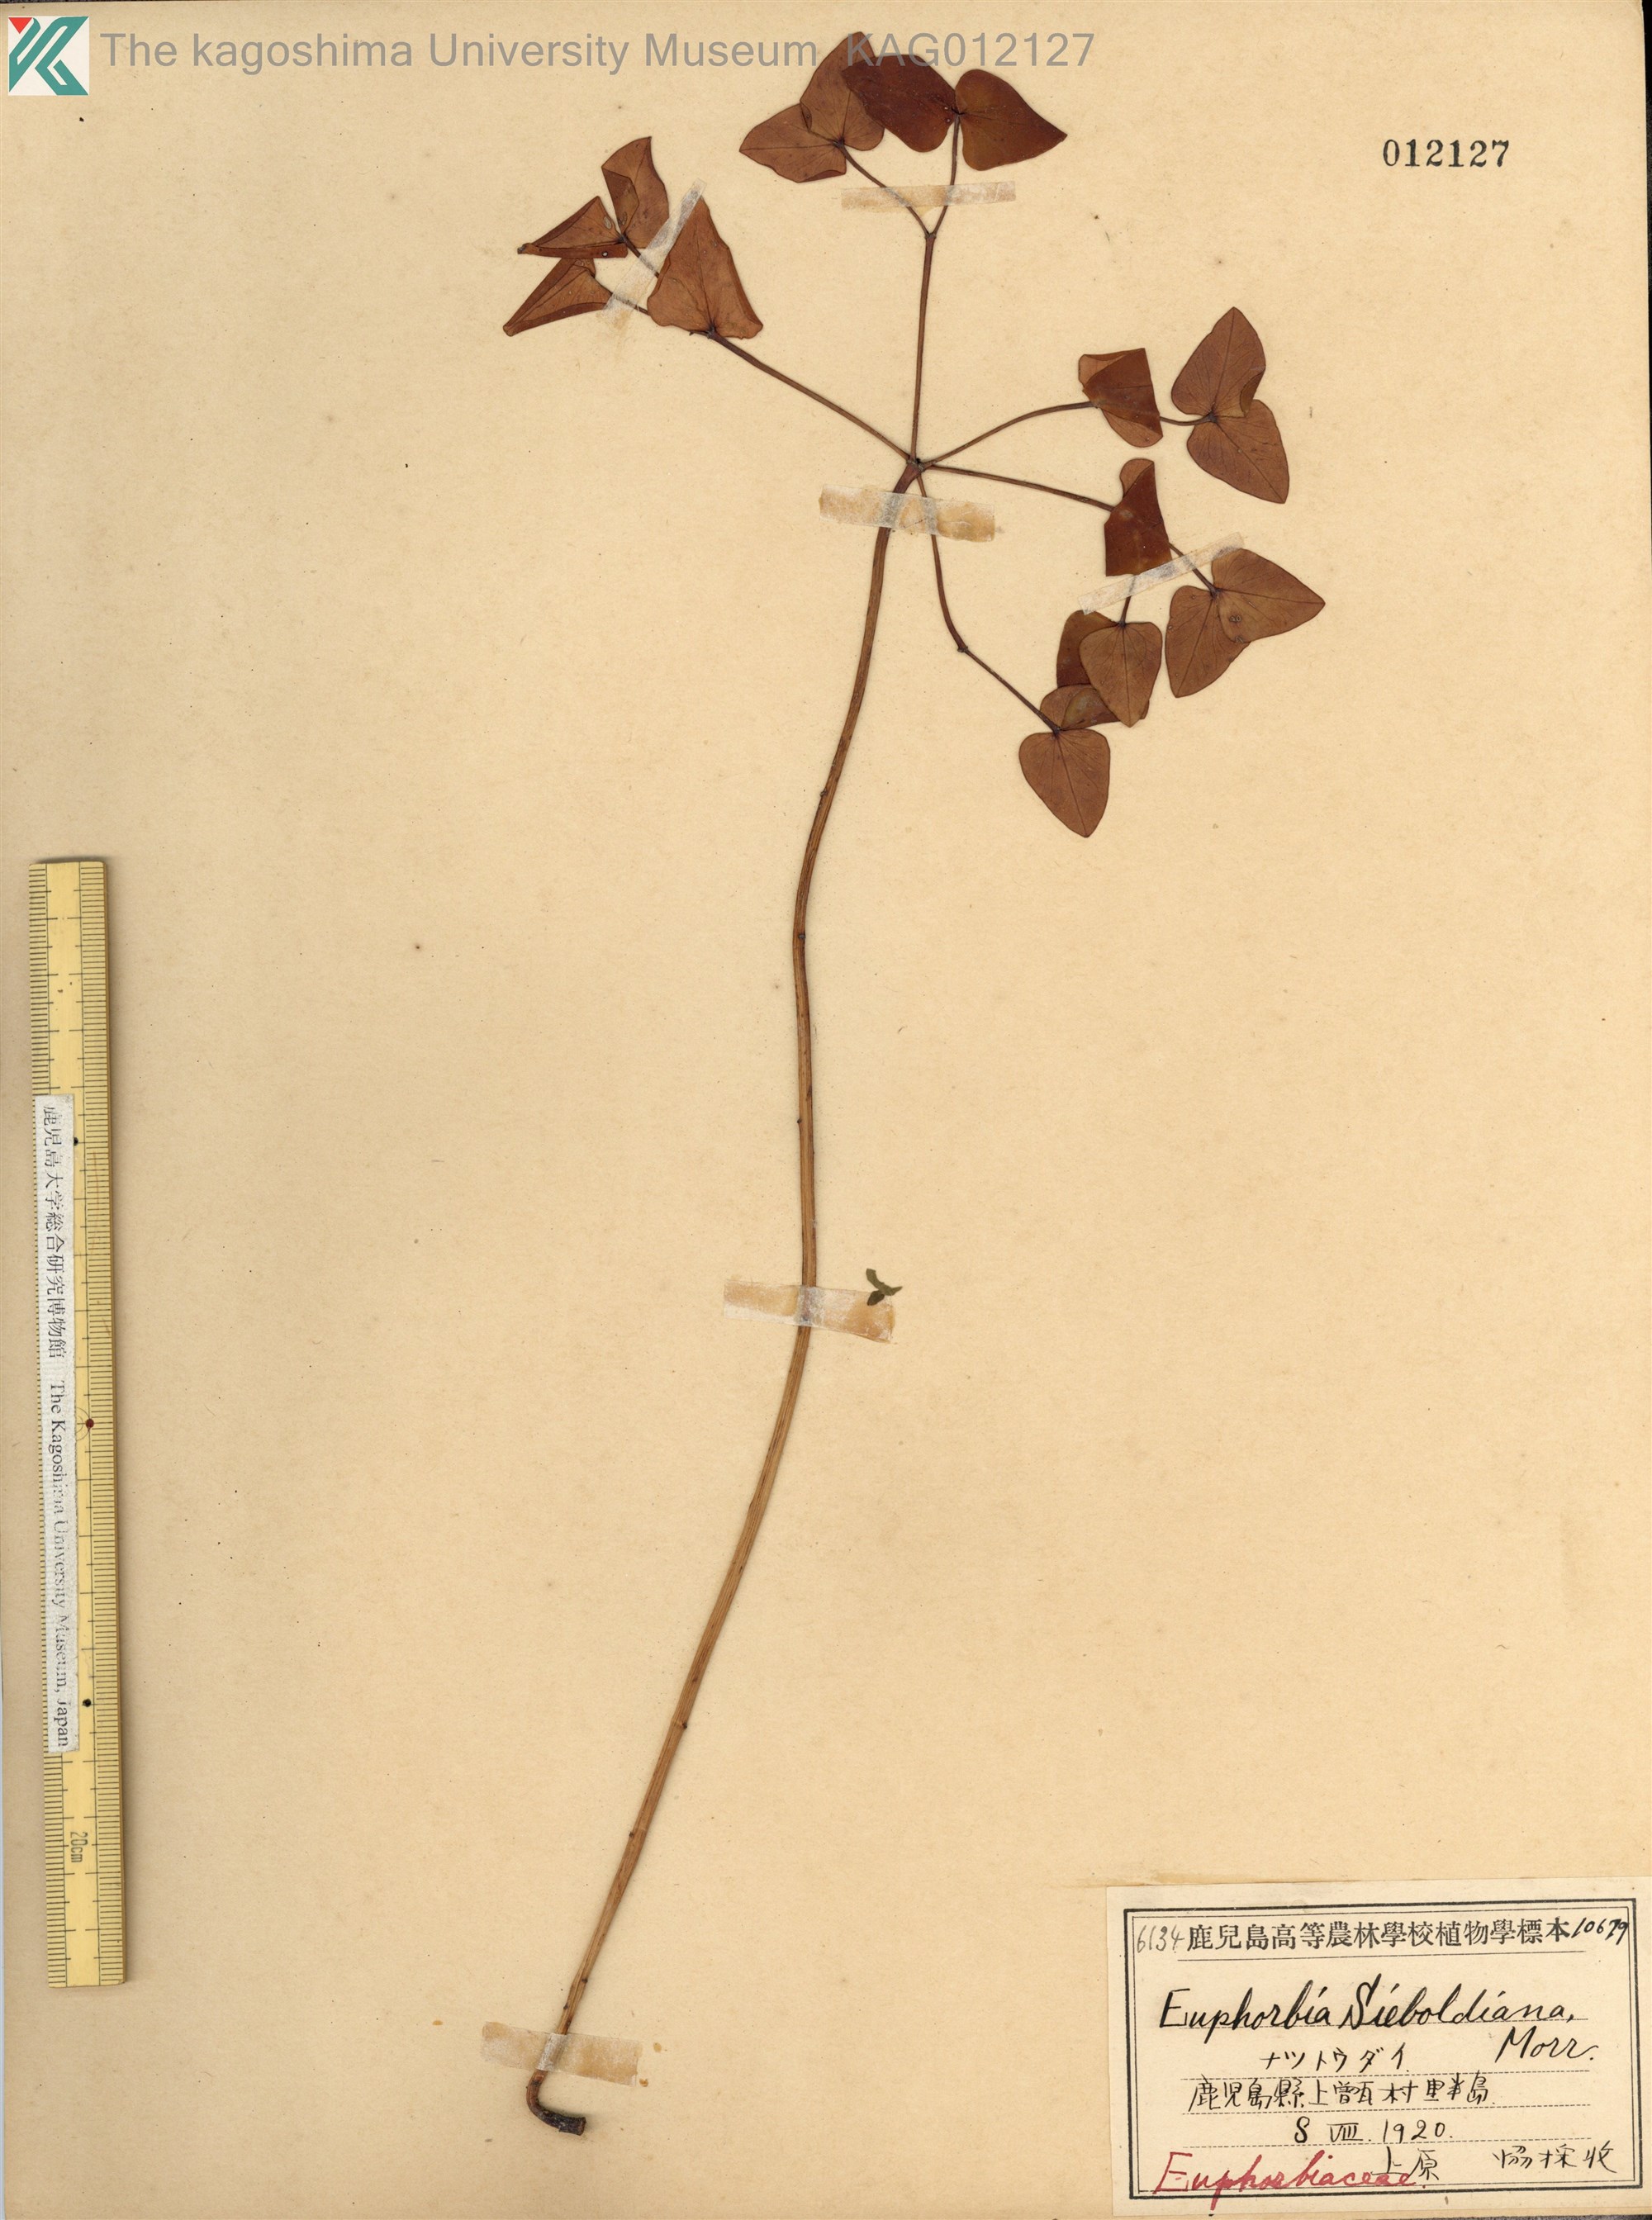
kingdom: Plantae
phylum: Tracheophyta
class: Magnoliopsida
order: Malpighiales
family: Euphorbiaceae
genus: Euphorbia
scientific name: Euphorbia sieboldiana
